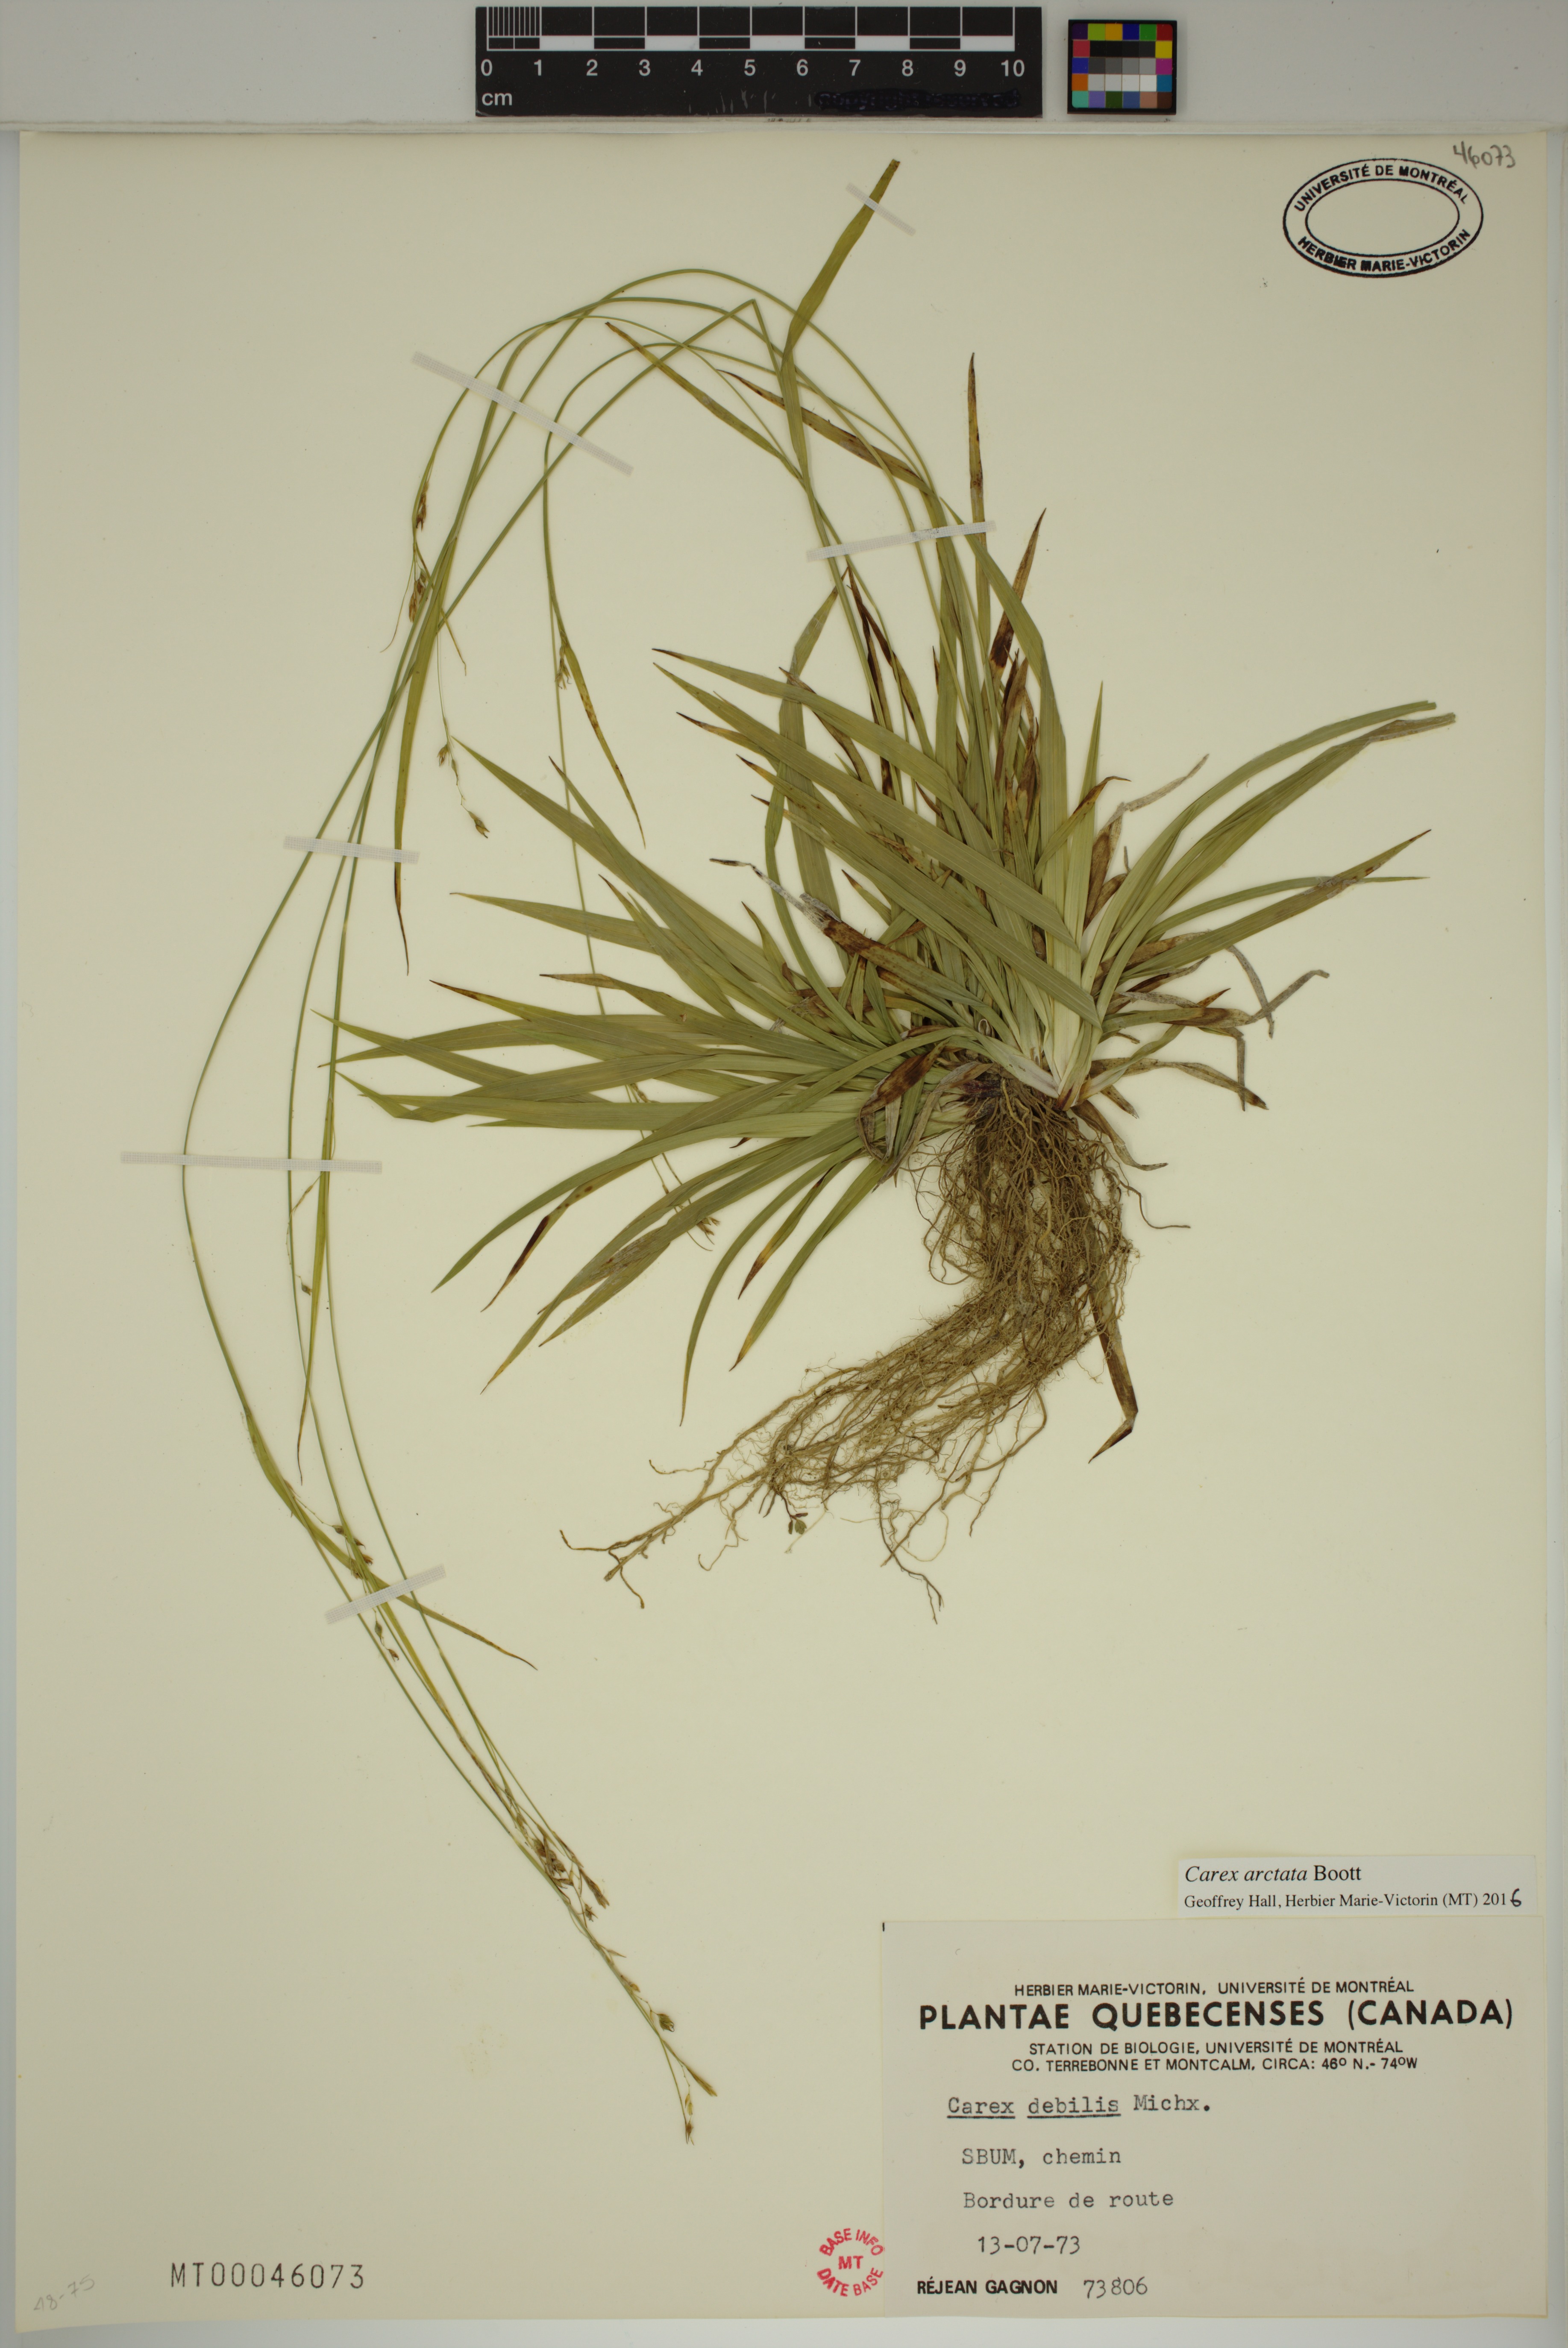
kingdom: Plantae
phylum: Tracheophyta
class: Liliopsida
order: Poales
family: Cyperaceae
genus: Carex
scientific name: Carex arctata
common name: Black sedge
